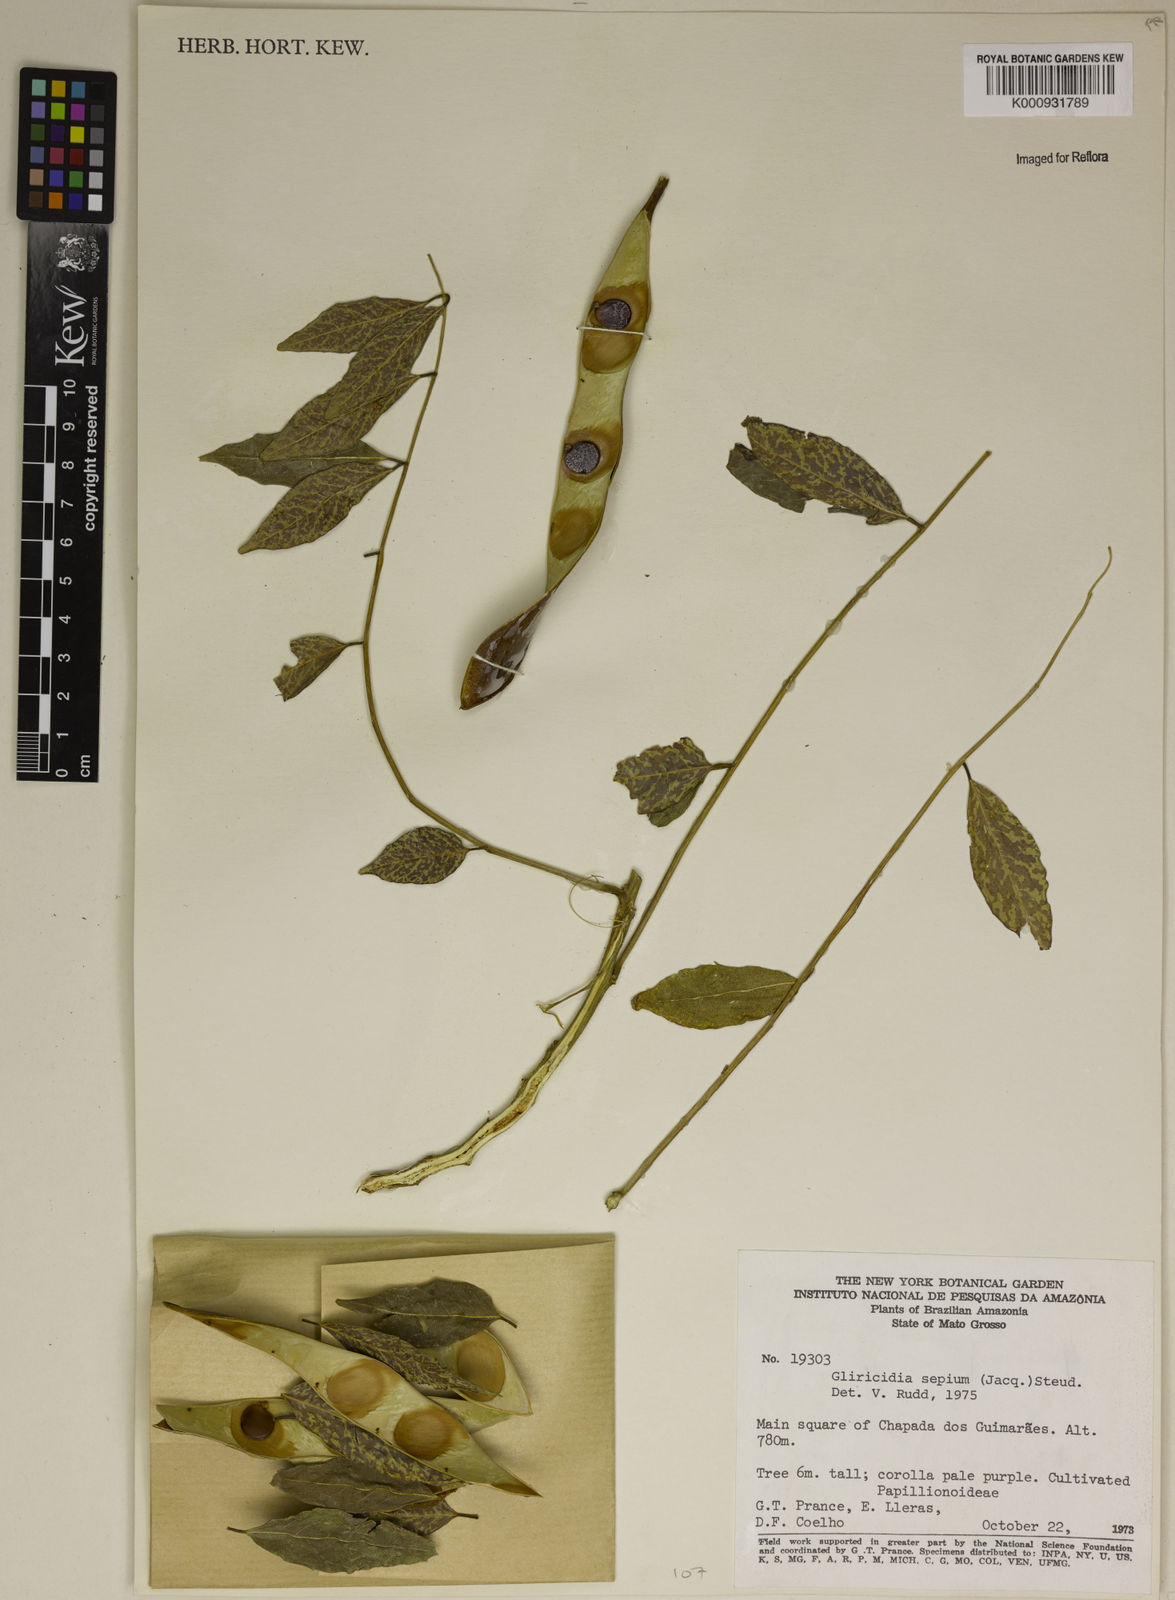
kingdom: Plantae
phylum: Tracheophyta
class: Magnoliopsida
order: Fabales
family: Fabaceae
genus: Gliricidia
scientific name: Gliricidia
